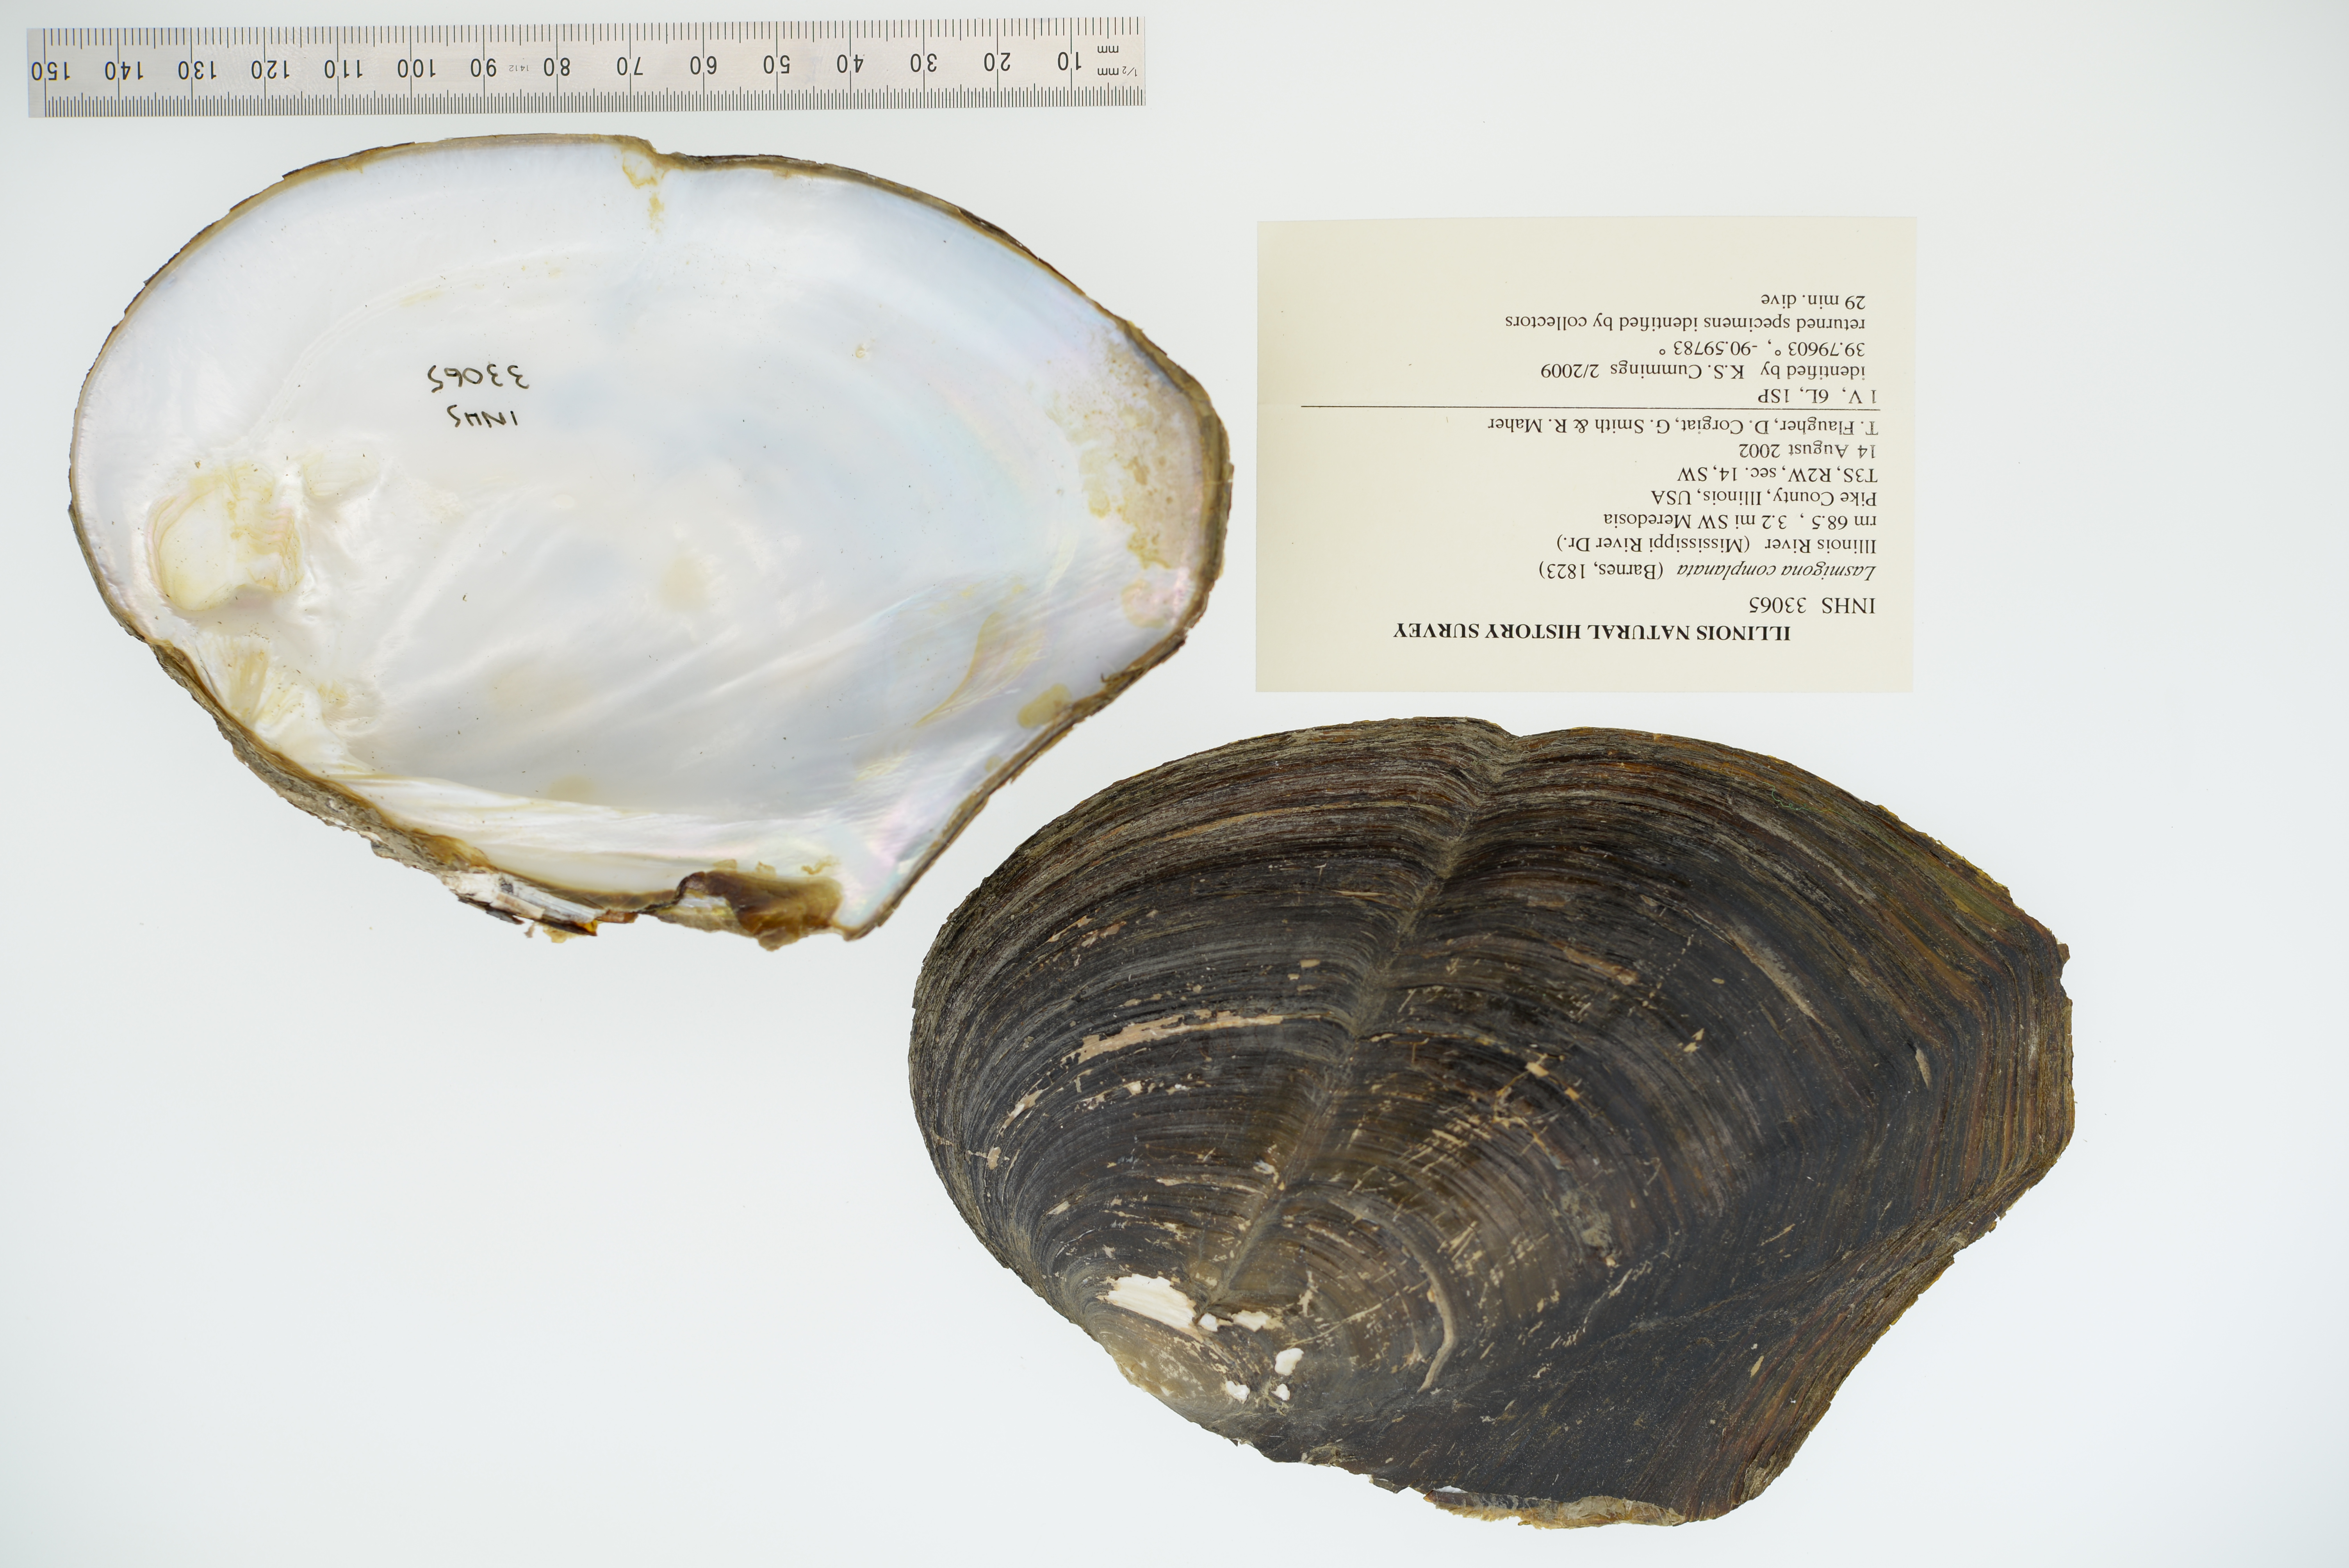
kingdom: Animalia
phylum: Mollusca
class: Bivalvia
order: Unionida
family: Unionidae
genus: Lasmigona
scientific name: Lasmigona complanata
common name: White heelsplitter
